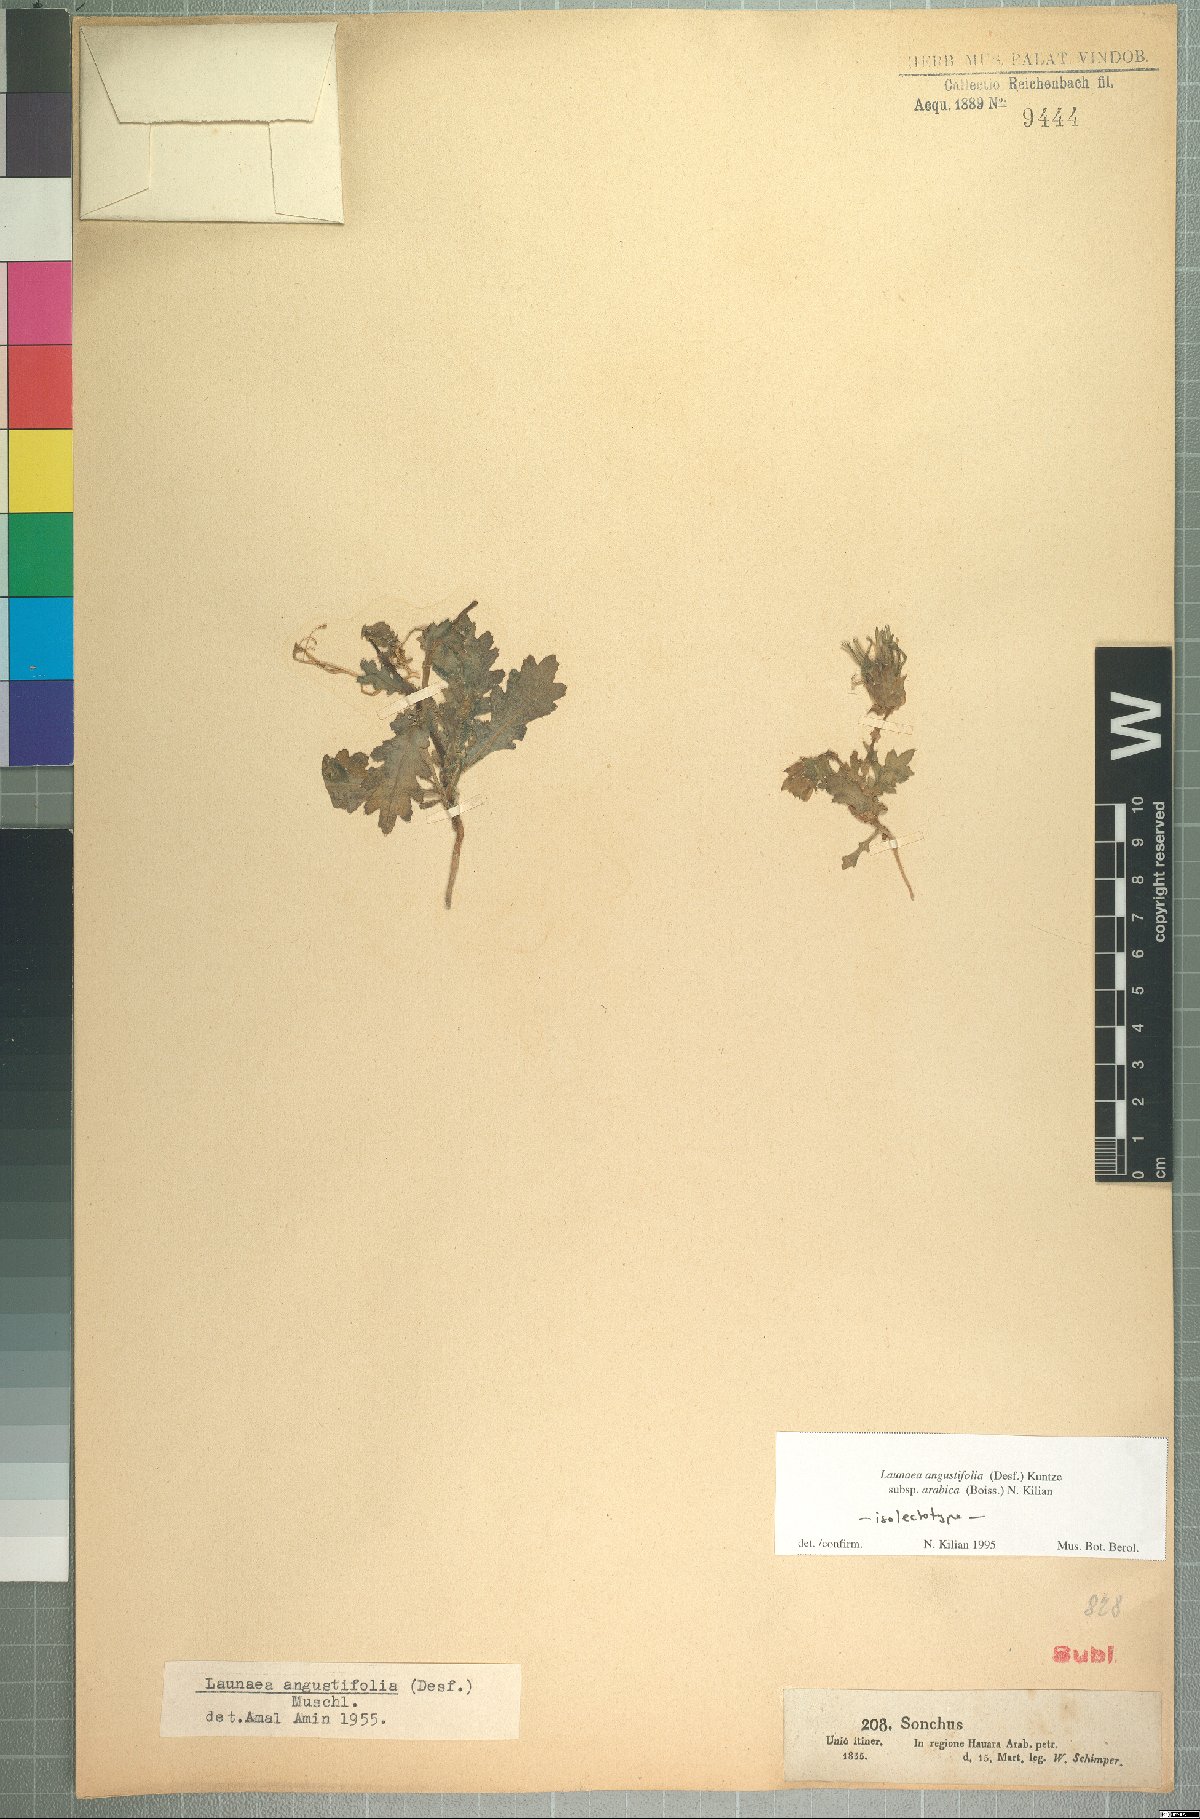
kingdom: Plantae
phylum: Tracheophyta
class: Magnoliopsida
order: Asterales
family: Asteraceae
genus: Launaea
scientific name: Launaea angustifolia
